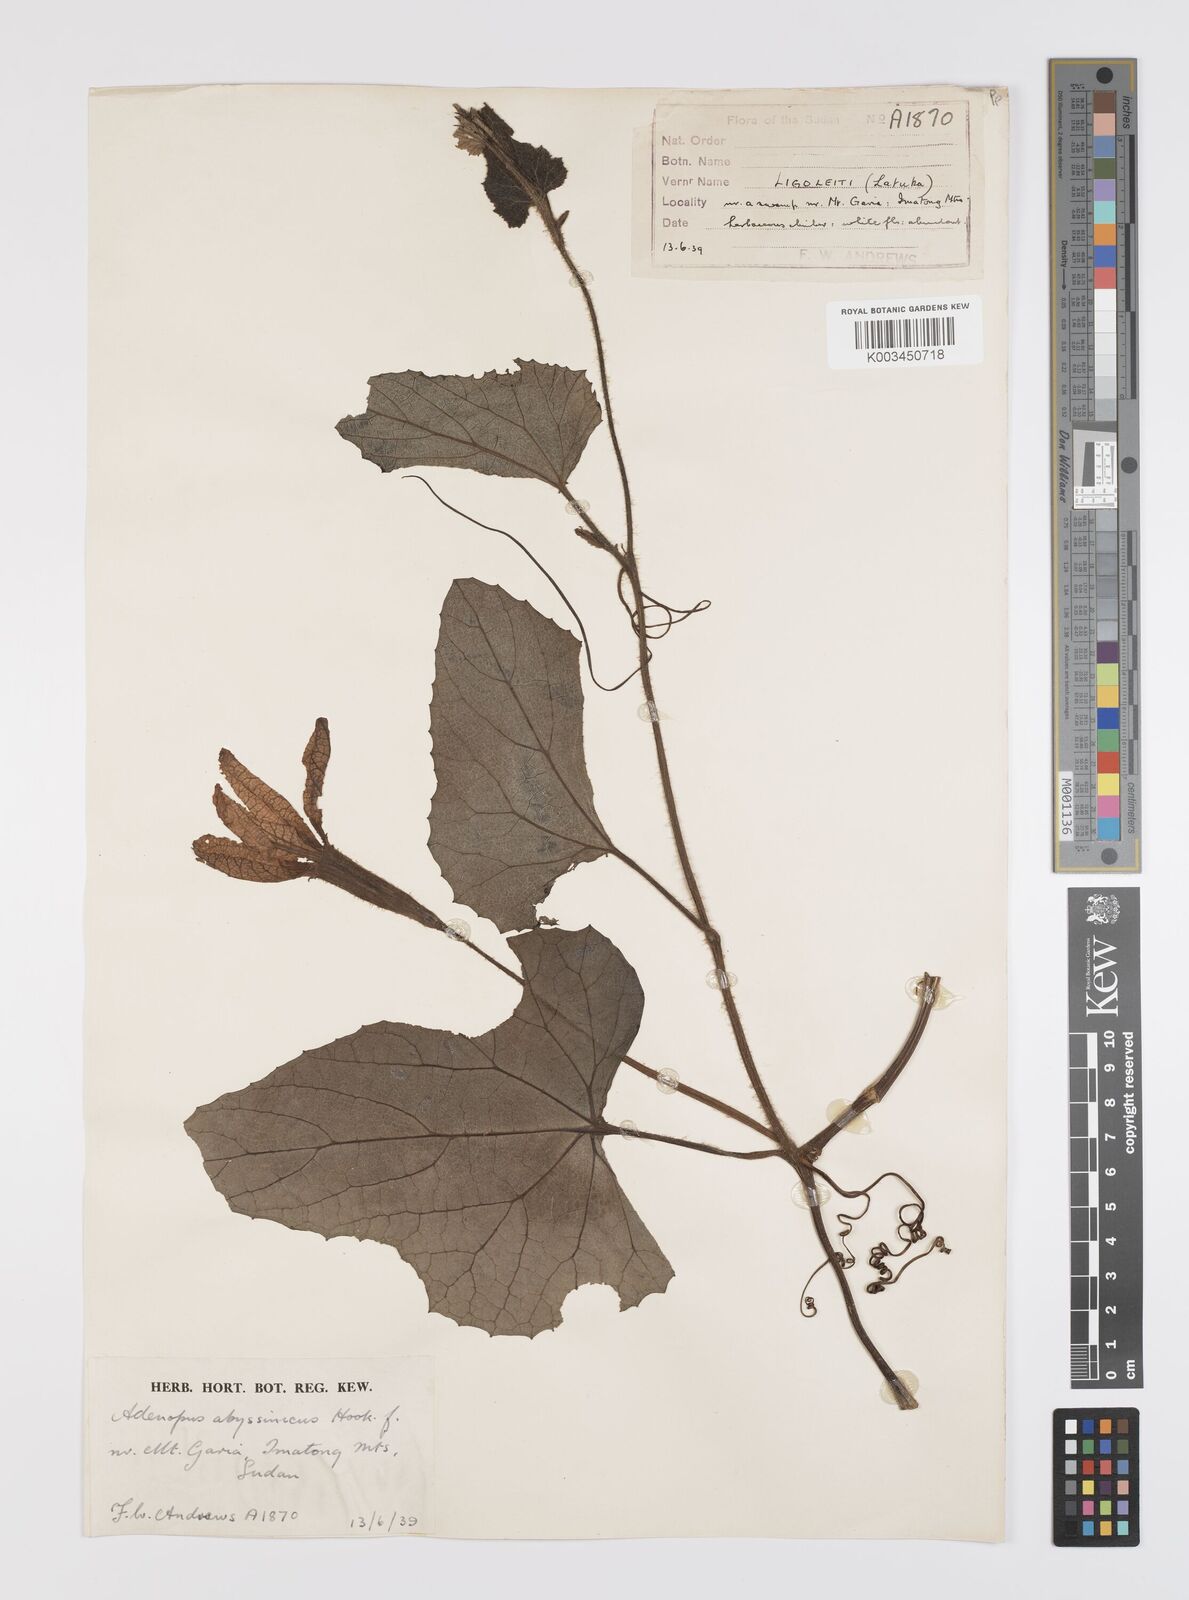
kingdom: Plantae
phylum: Tracheophyta
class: Magnoliopsida
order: Cucurbitales
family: Cucurbitaceae
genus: Lagenaria
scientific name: Lagenaria abyssinica
